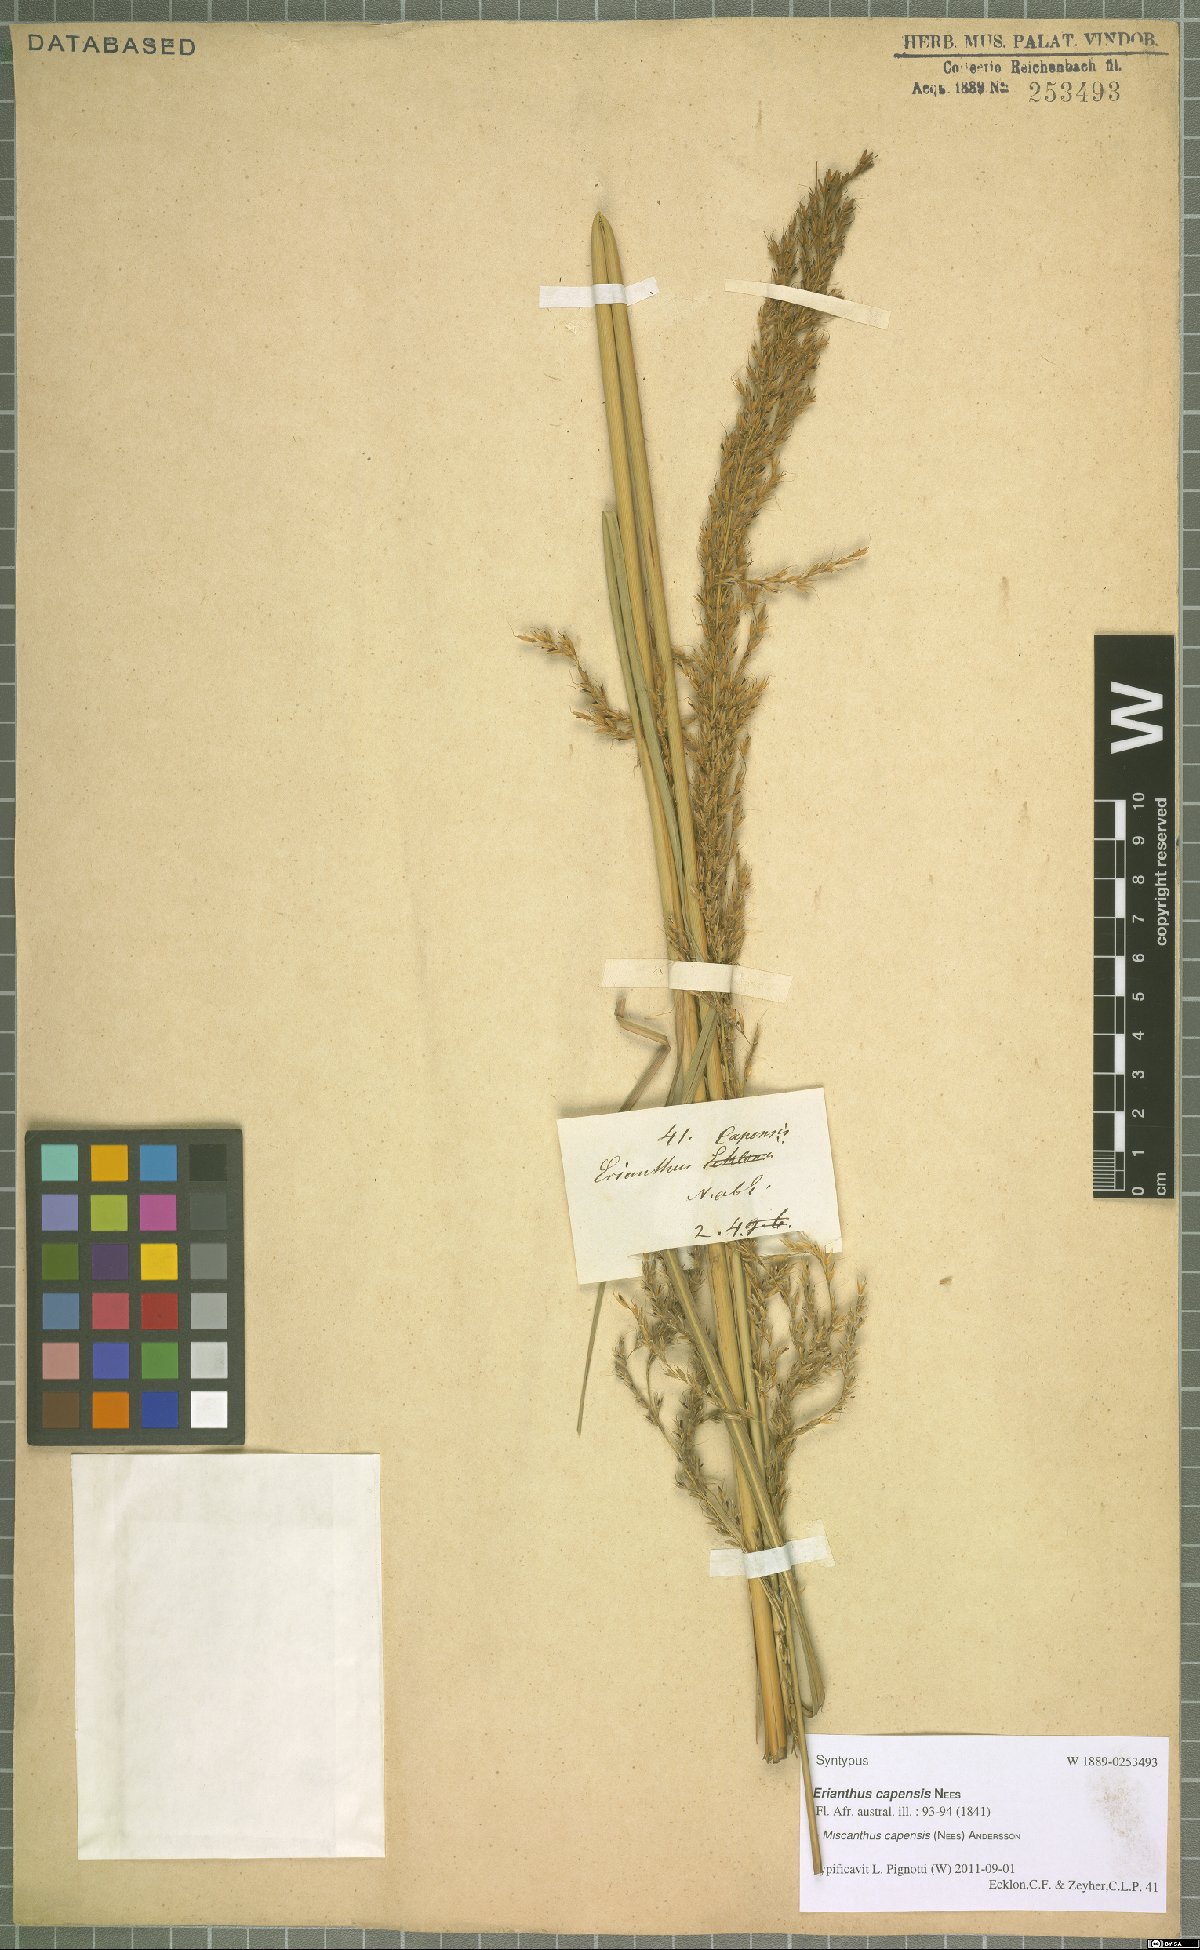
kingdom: Plantae
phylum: Tracheophyta
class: Liliopsida
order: Poales
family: Poaceae
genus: Miscanthus
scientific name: Miscanthus ecklonii
